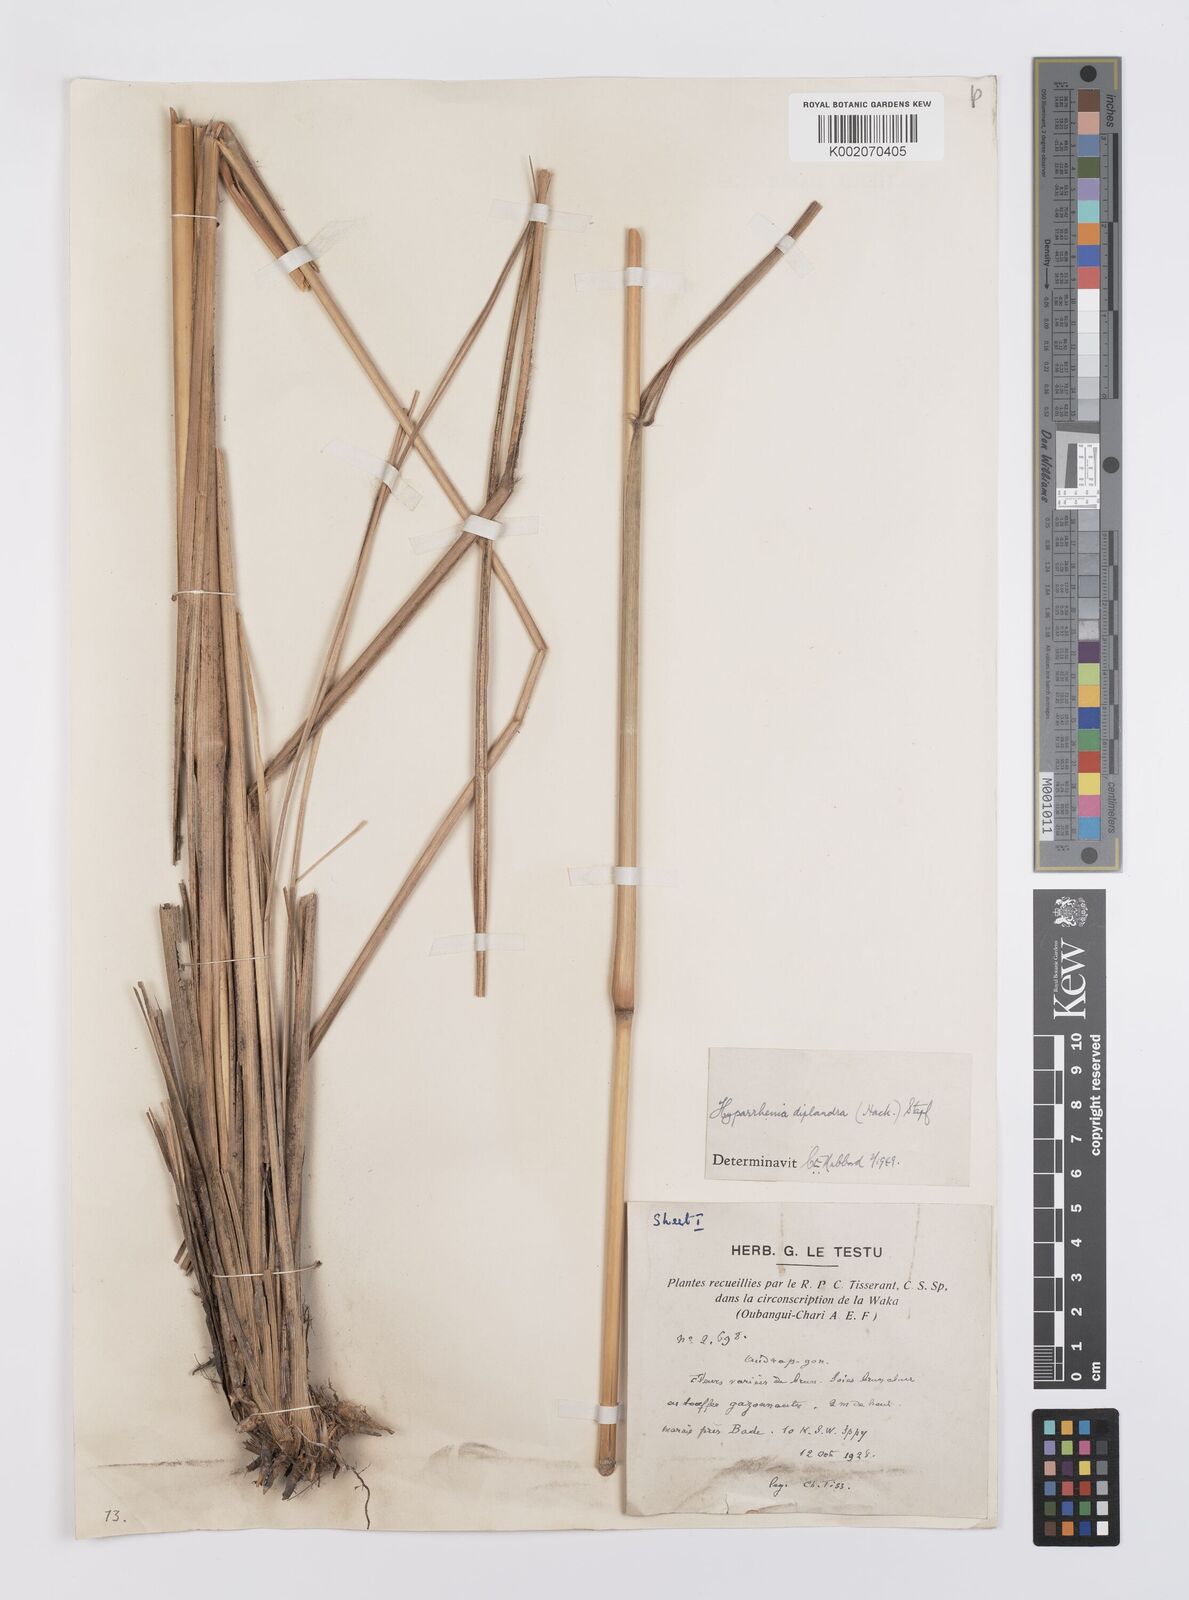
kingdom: Plantae
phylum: Tracheophyta
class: Liliopsida
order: Poales
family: Poaceae
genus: Hyparrhenia
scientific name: Hyparrhenia diplandra
